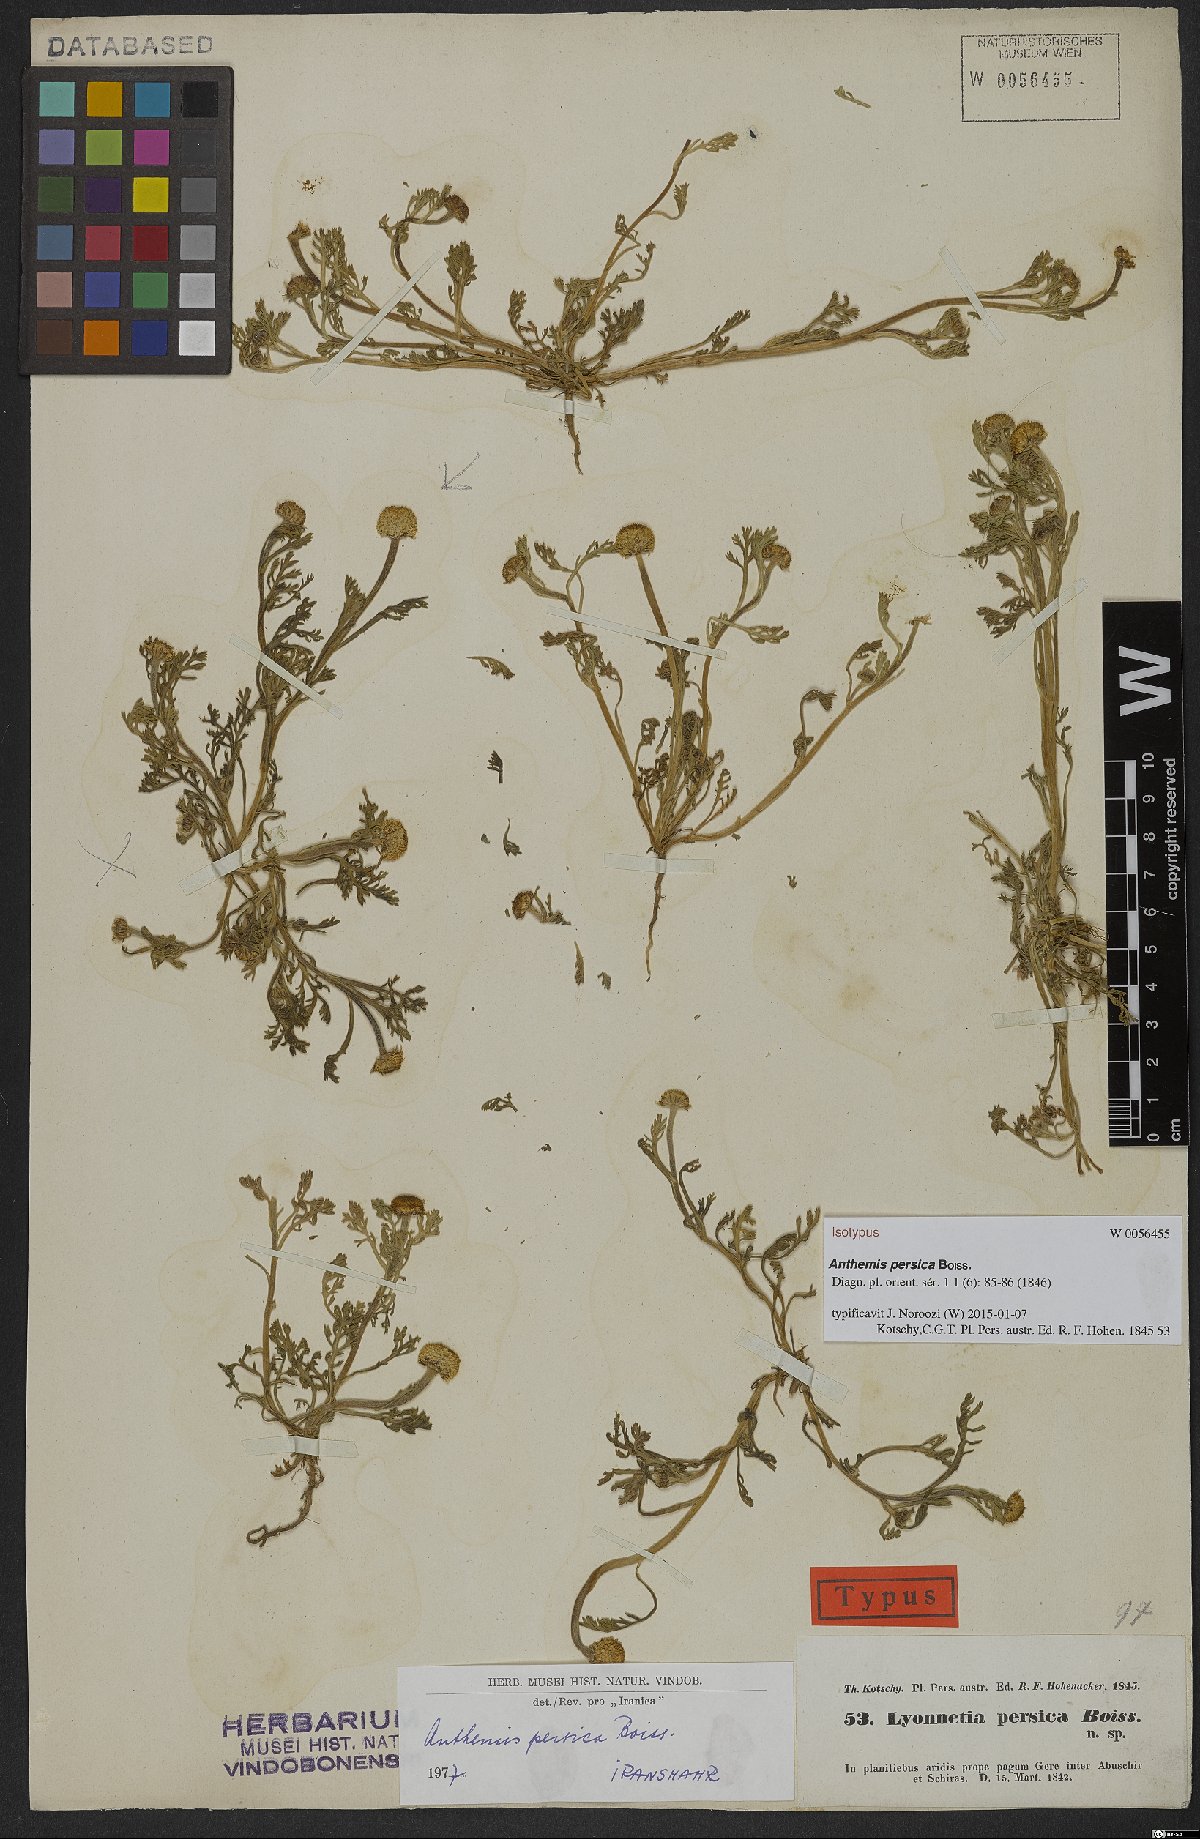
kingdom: Plantae
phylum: Tracheophyta
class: Magnoliopsida
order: Asterales
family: Asteraceae
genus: Anthemis
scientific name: Anthemis persica
